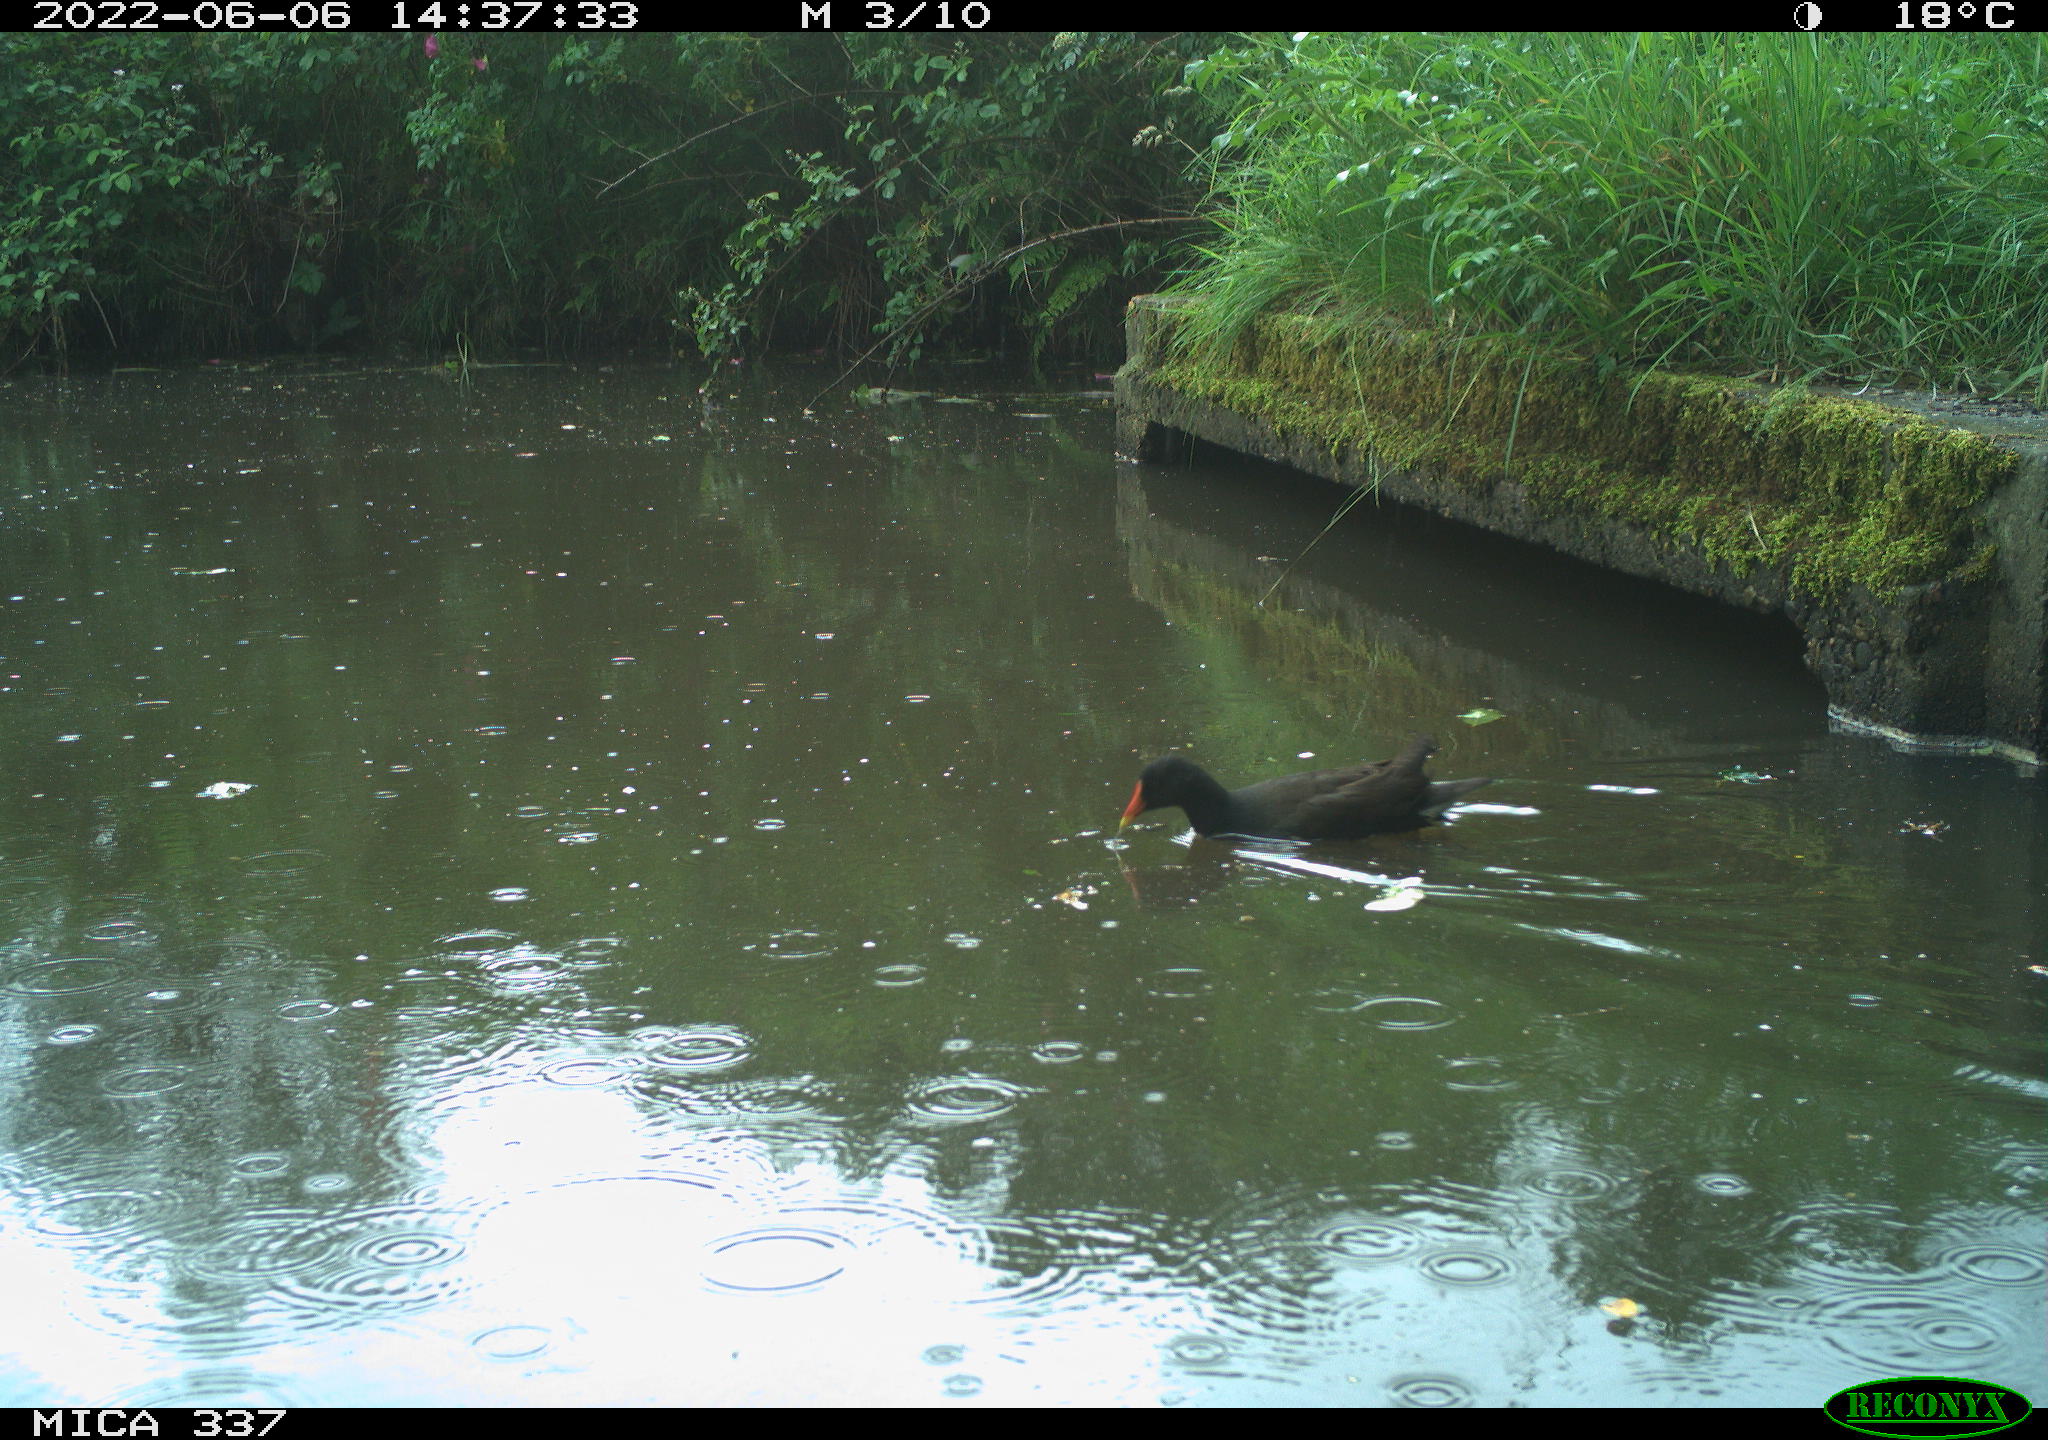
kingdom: Animalia
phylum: Chordata
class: Aves
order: Gruiformes
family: Rallidae
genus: Gallinula
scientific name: Gallinula chloropus
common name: Common moorhen
